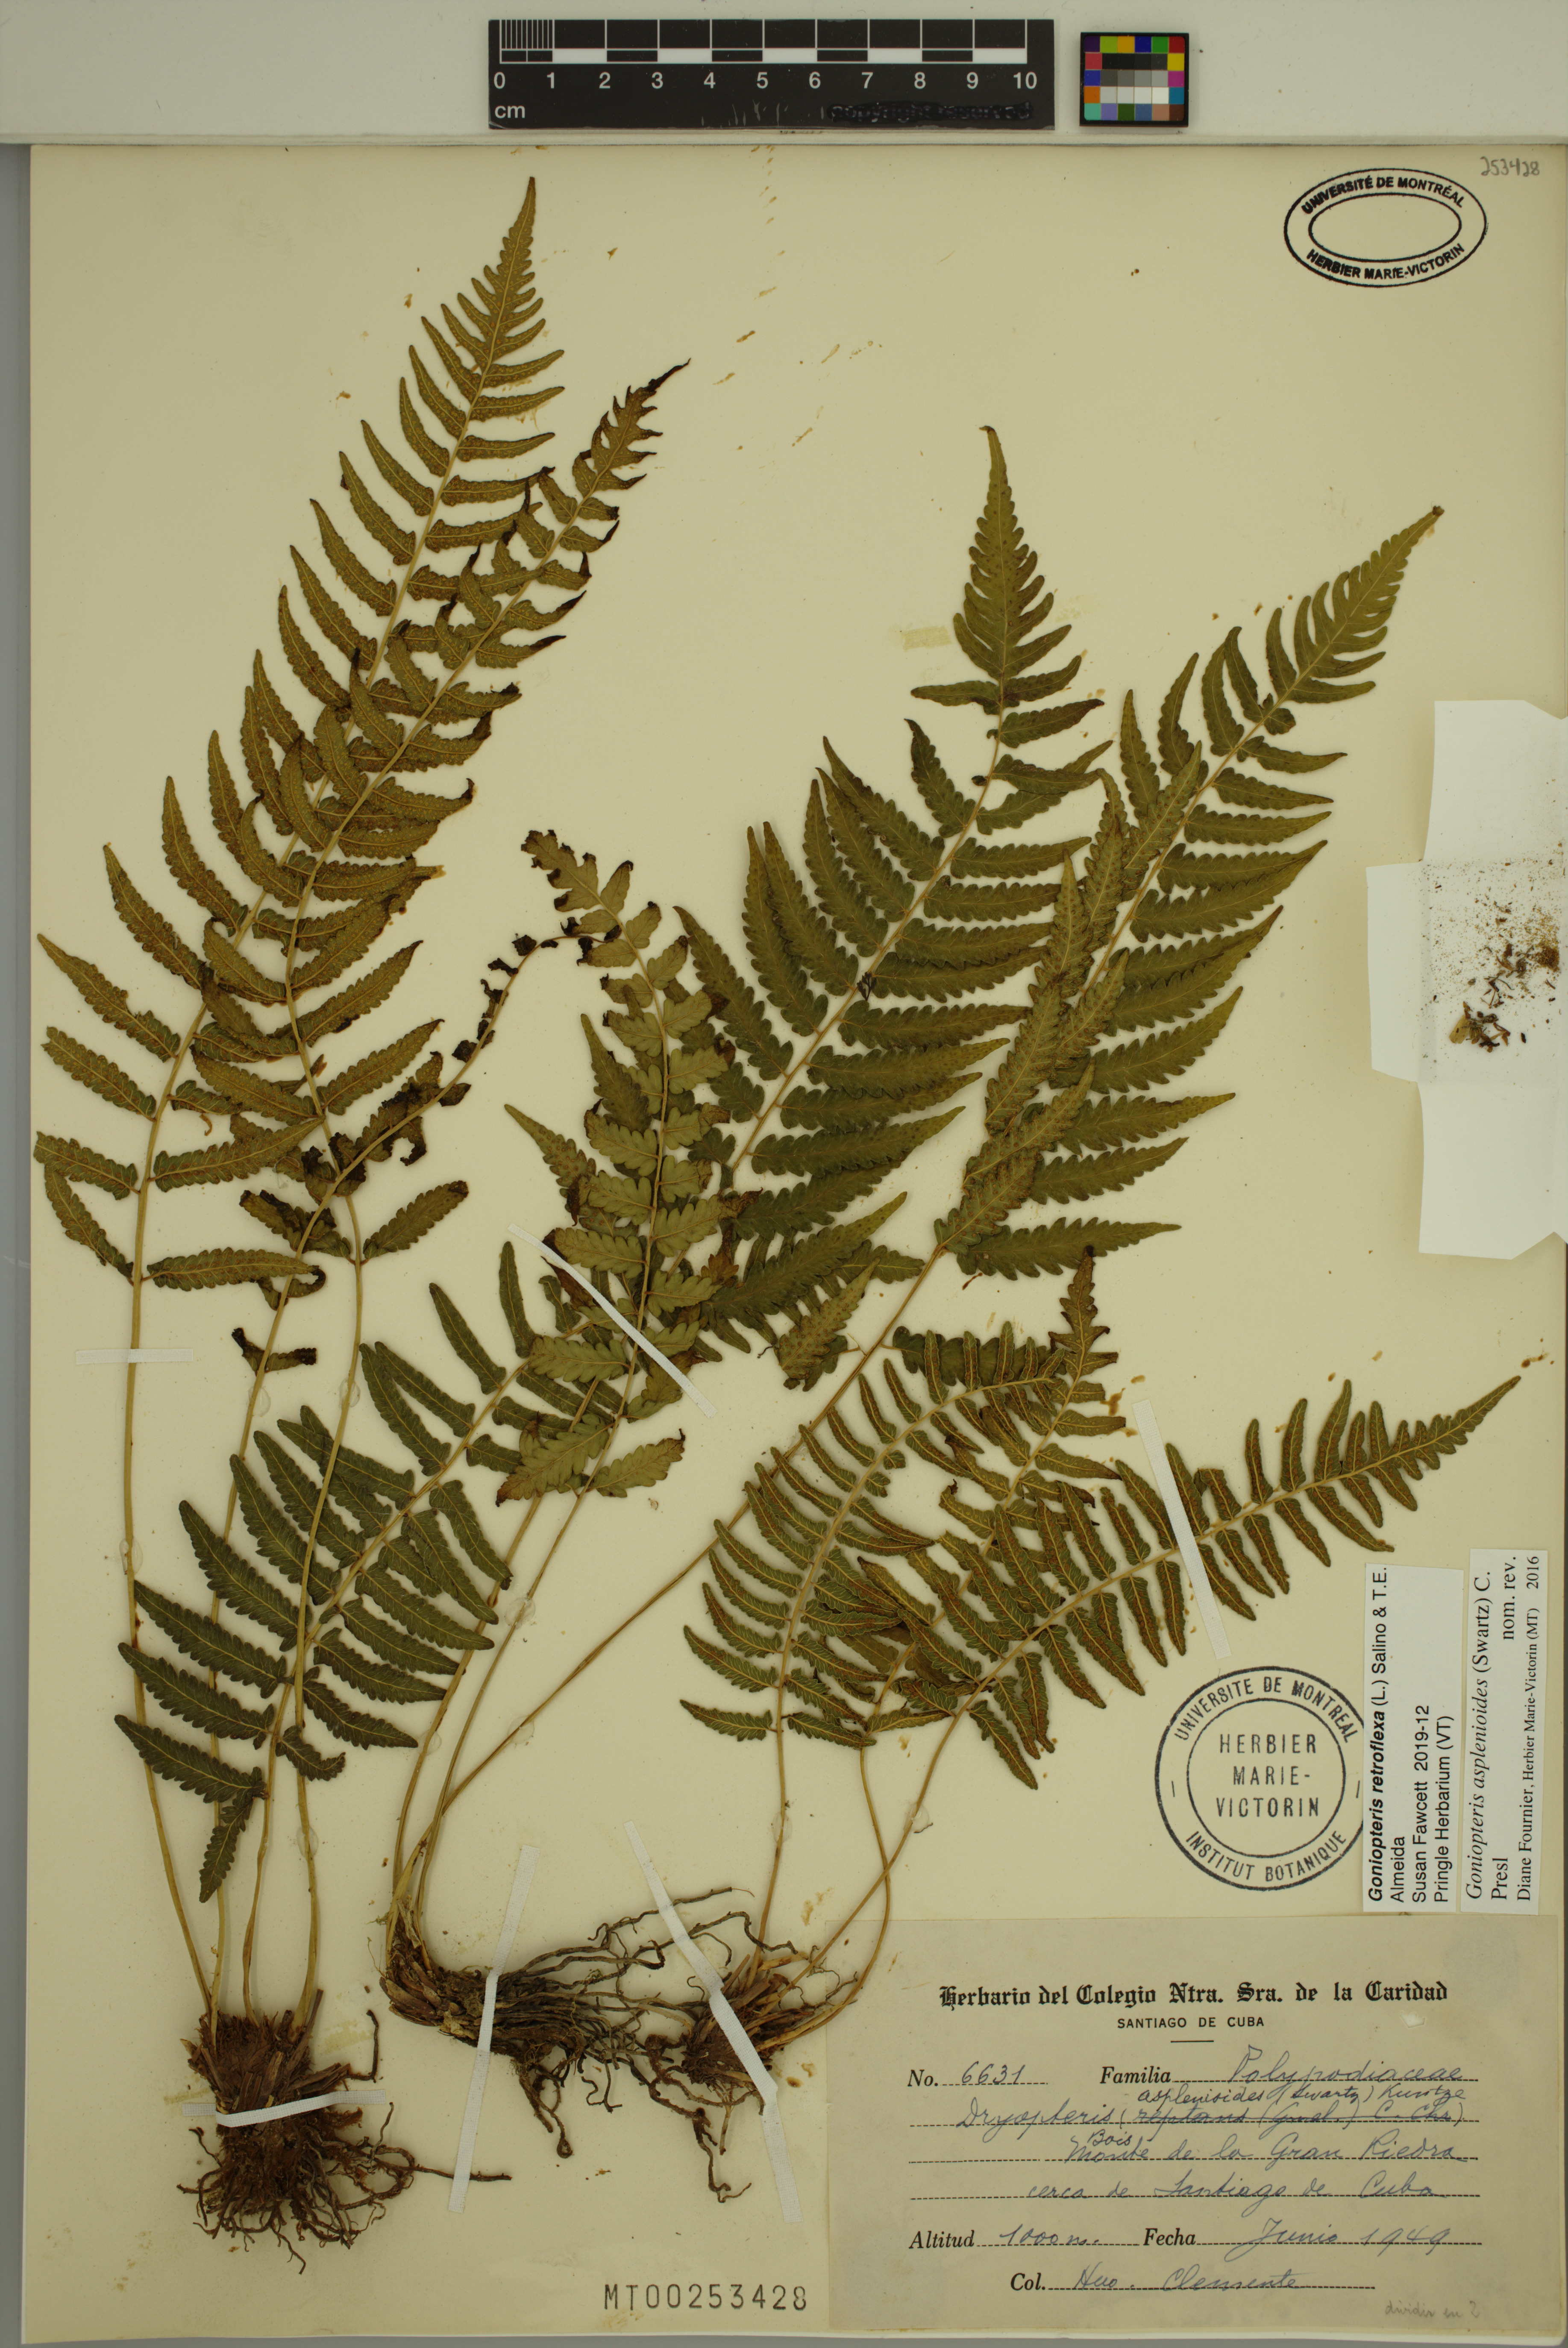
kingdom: Plantae
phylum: Tracheophyta
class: Polypodiopsida
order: Polypodiales
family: Thelypteridaceae
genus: Goniopteris
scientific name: Goniopteris retroflexa
